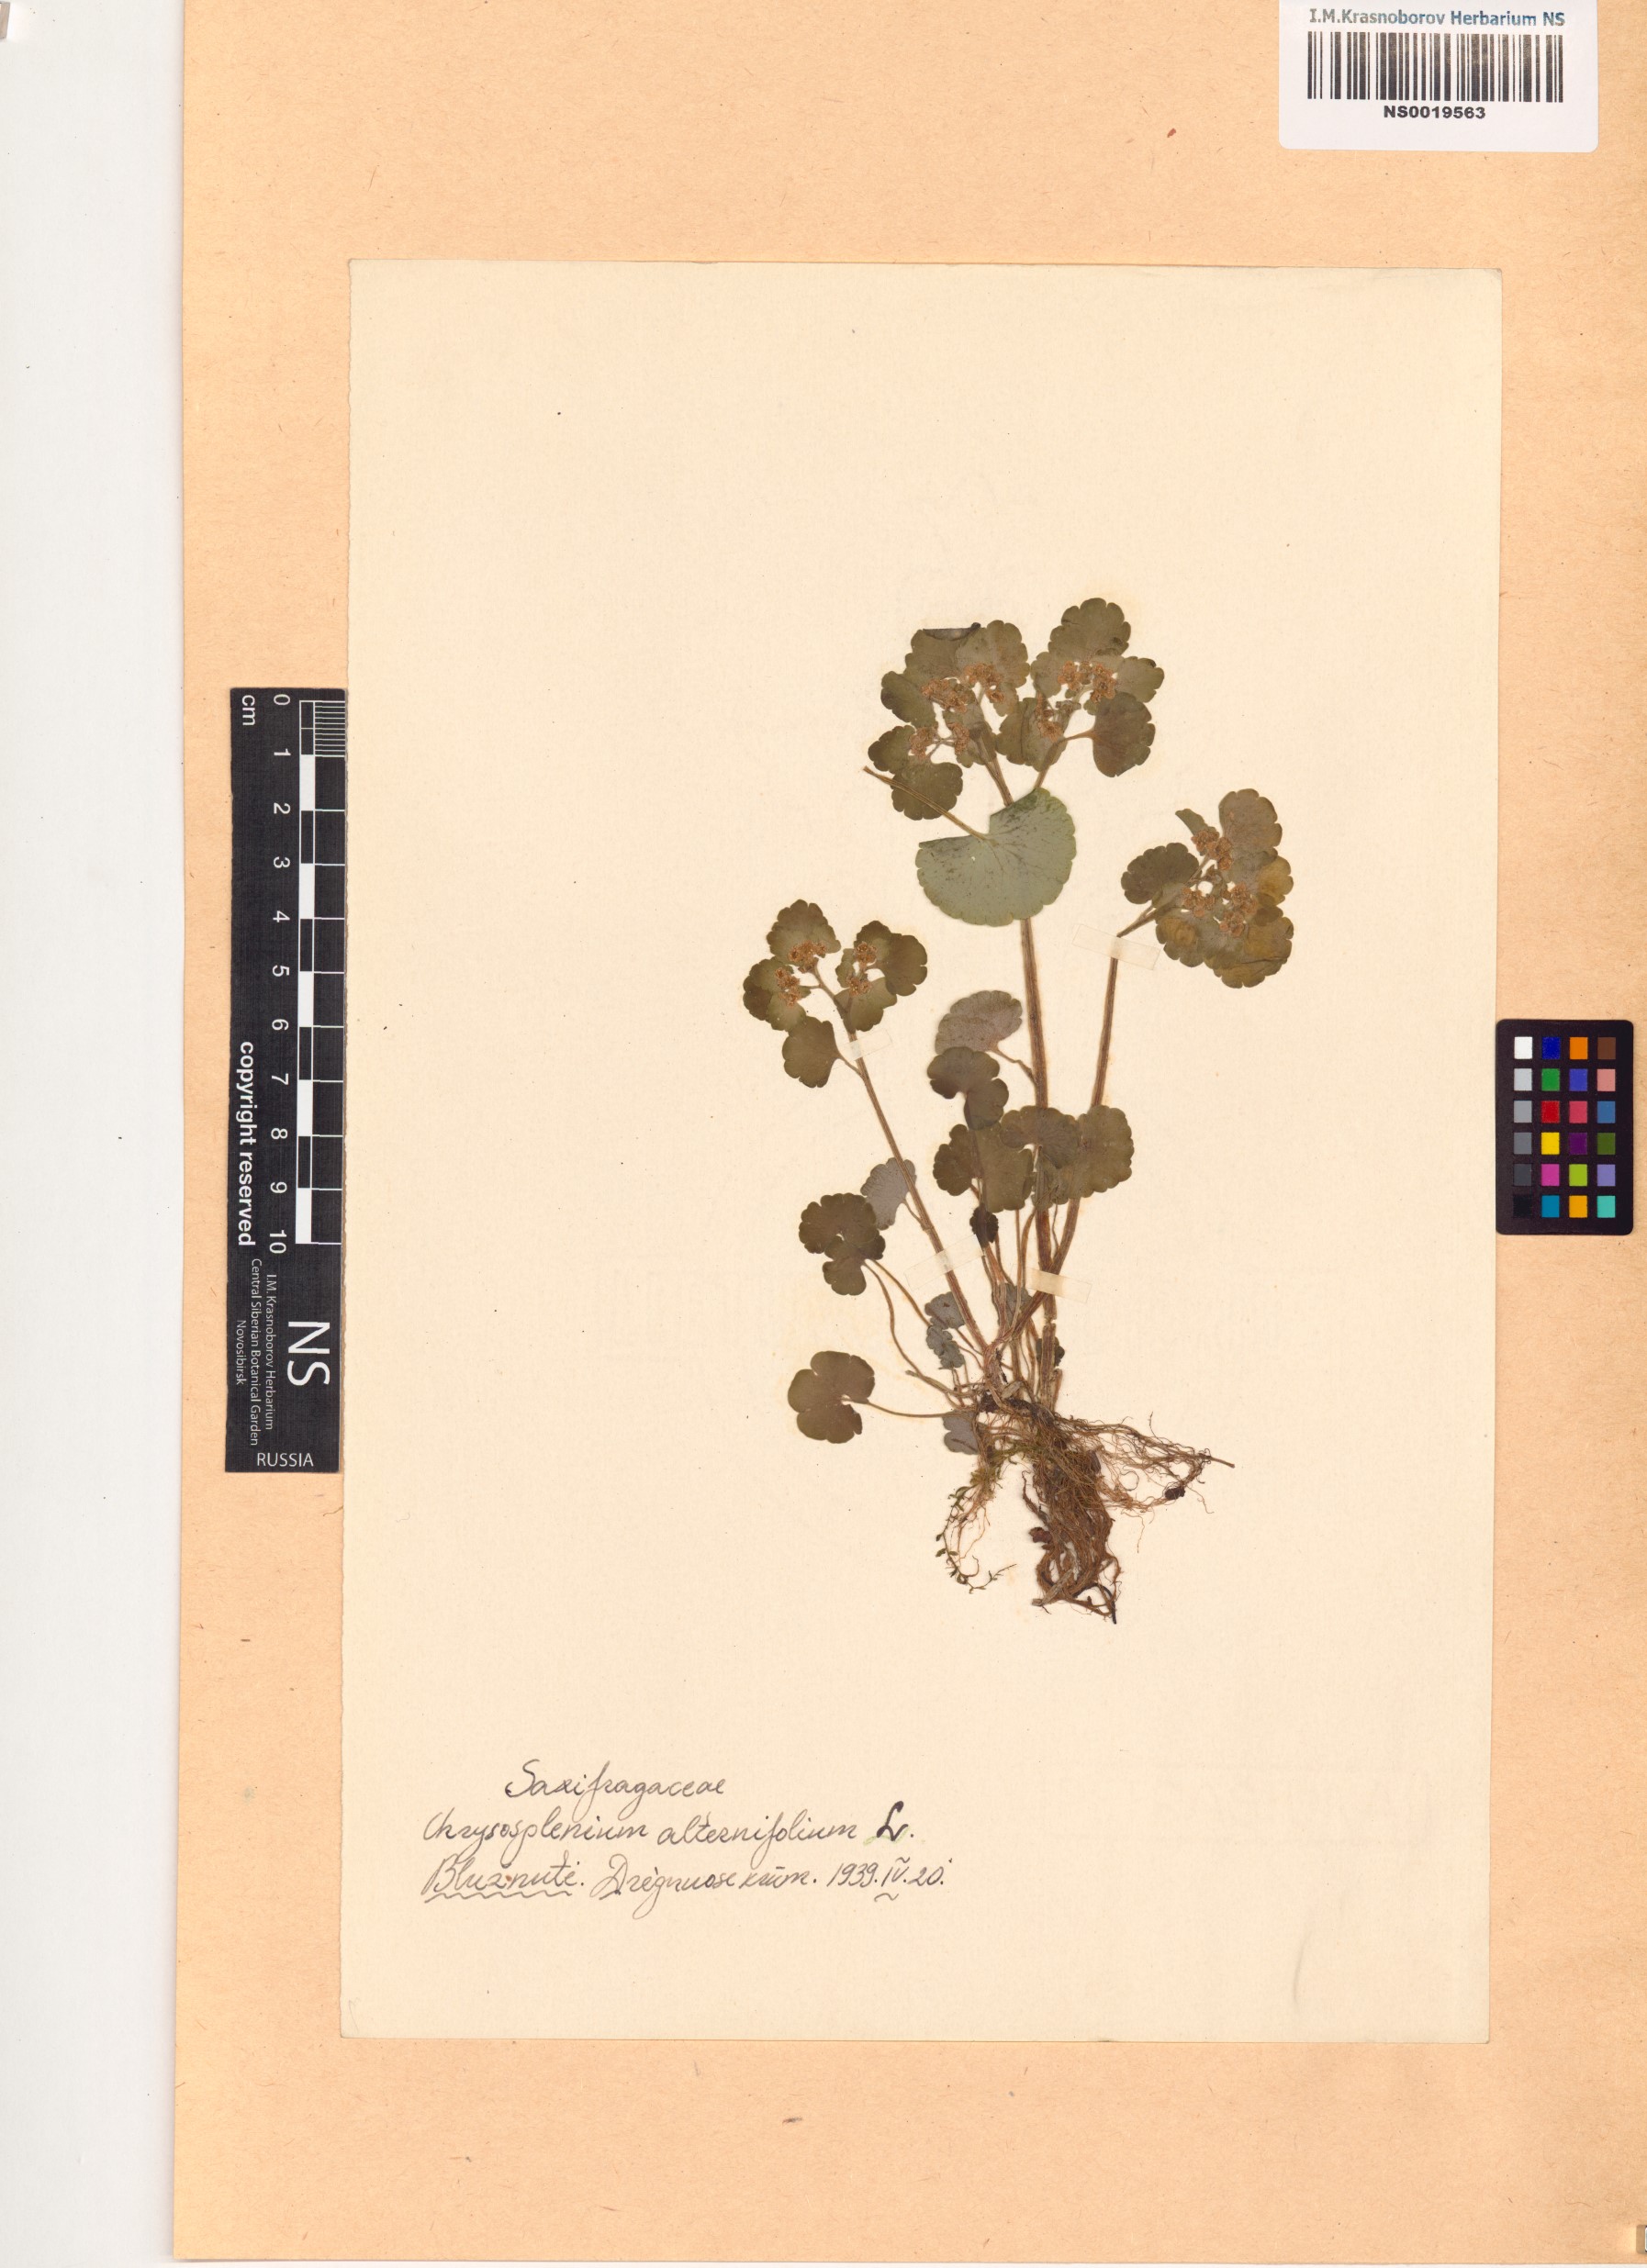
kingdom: Plantae
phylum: Tracheophyta
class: Magnoliopsida
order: Saxifragales
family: Saxifragaceae
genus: Chrysosplenium
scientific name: Chrysosplenium alternifolium
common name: Alternate-leaved golden-saxifrage
